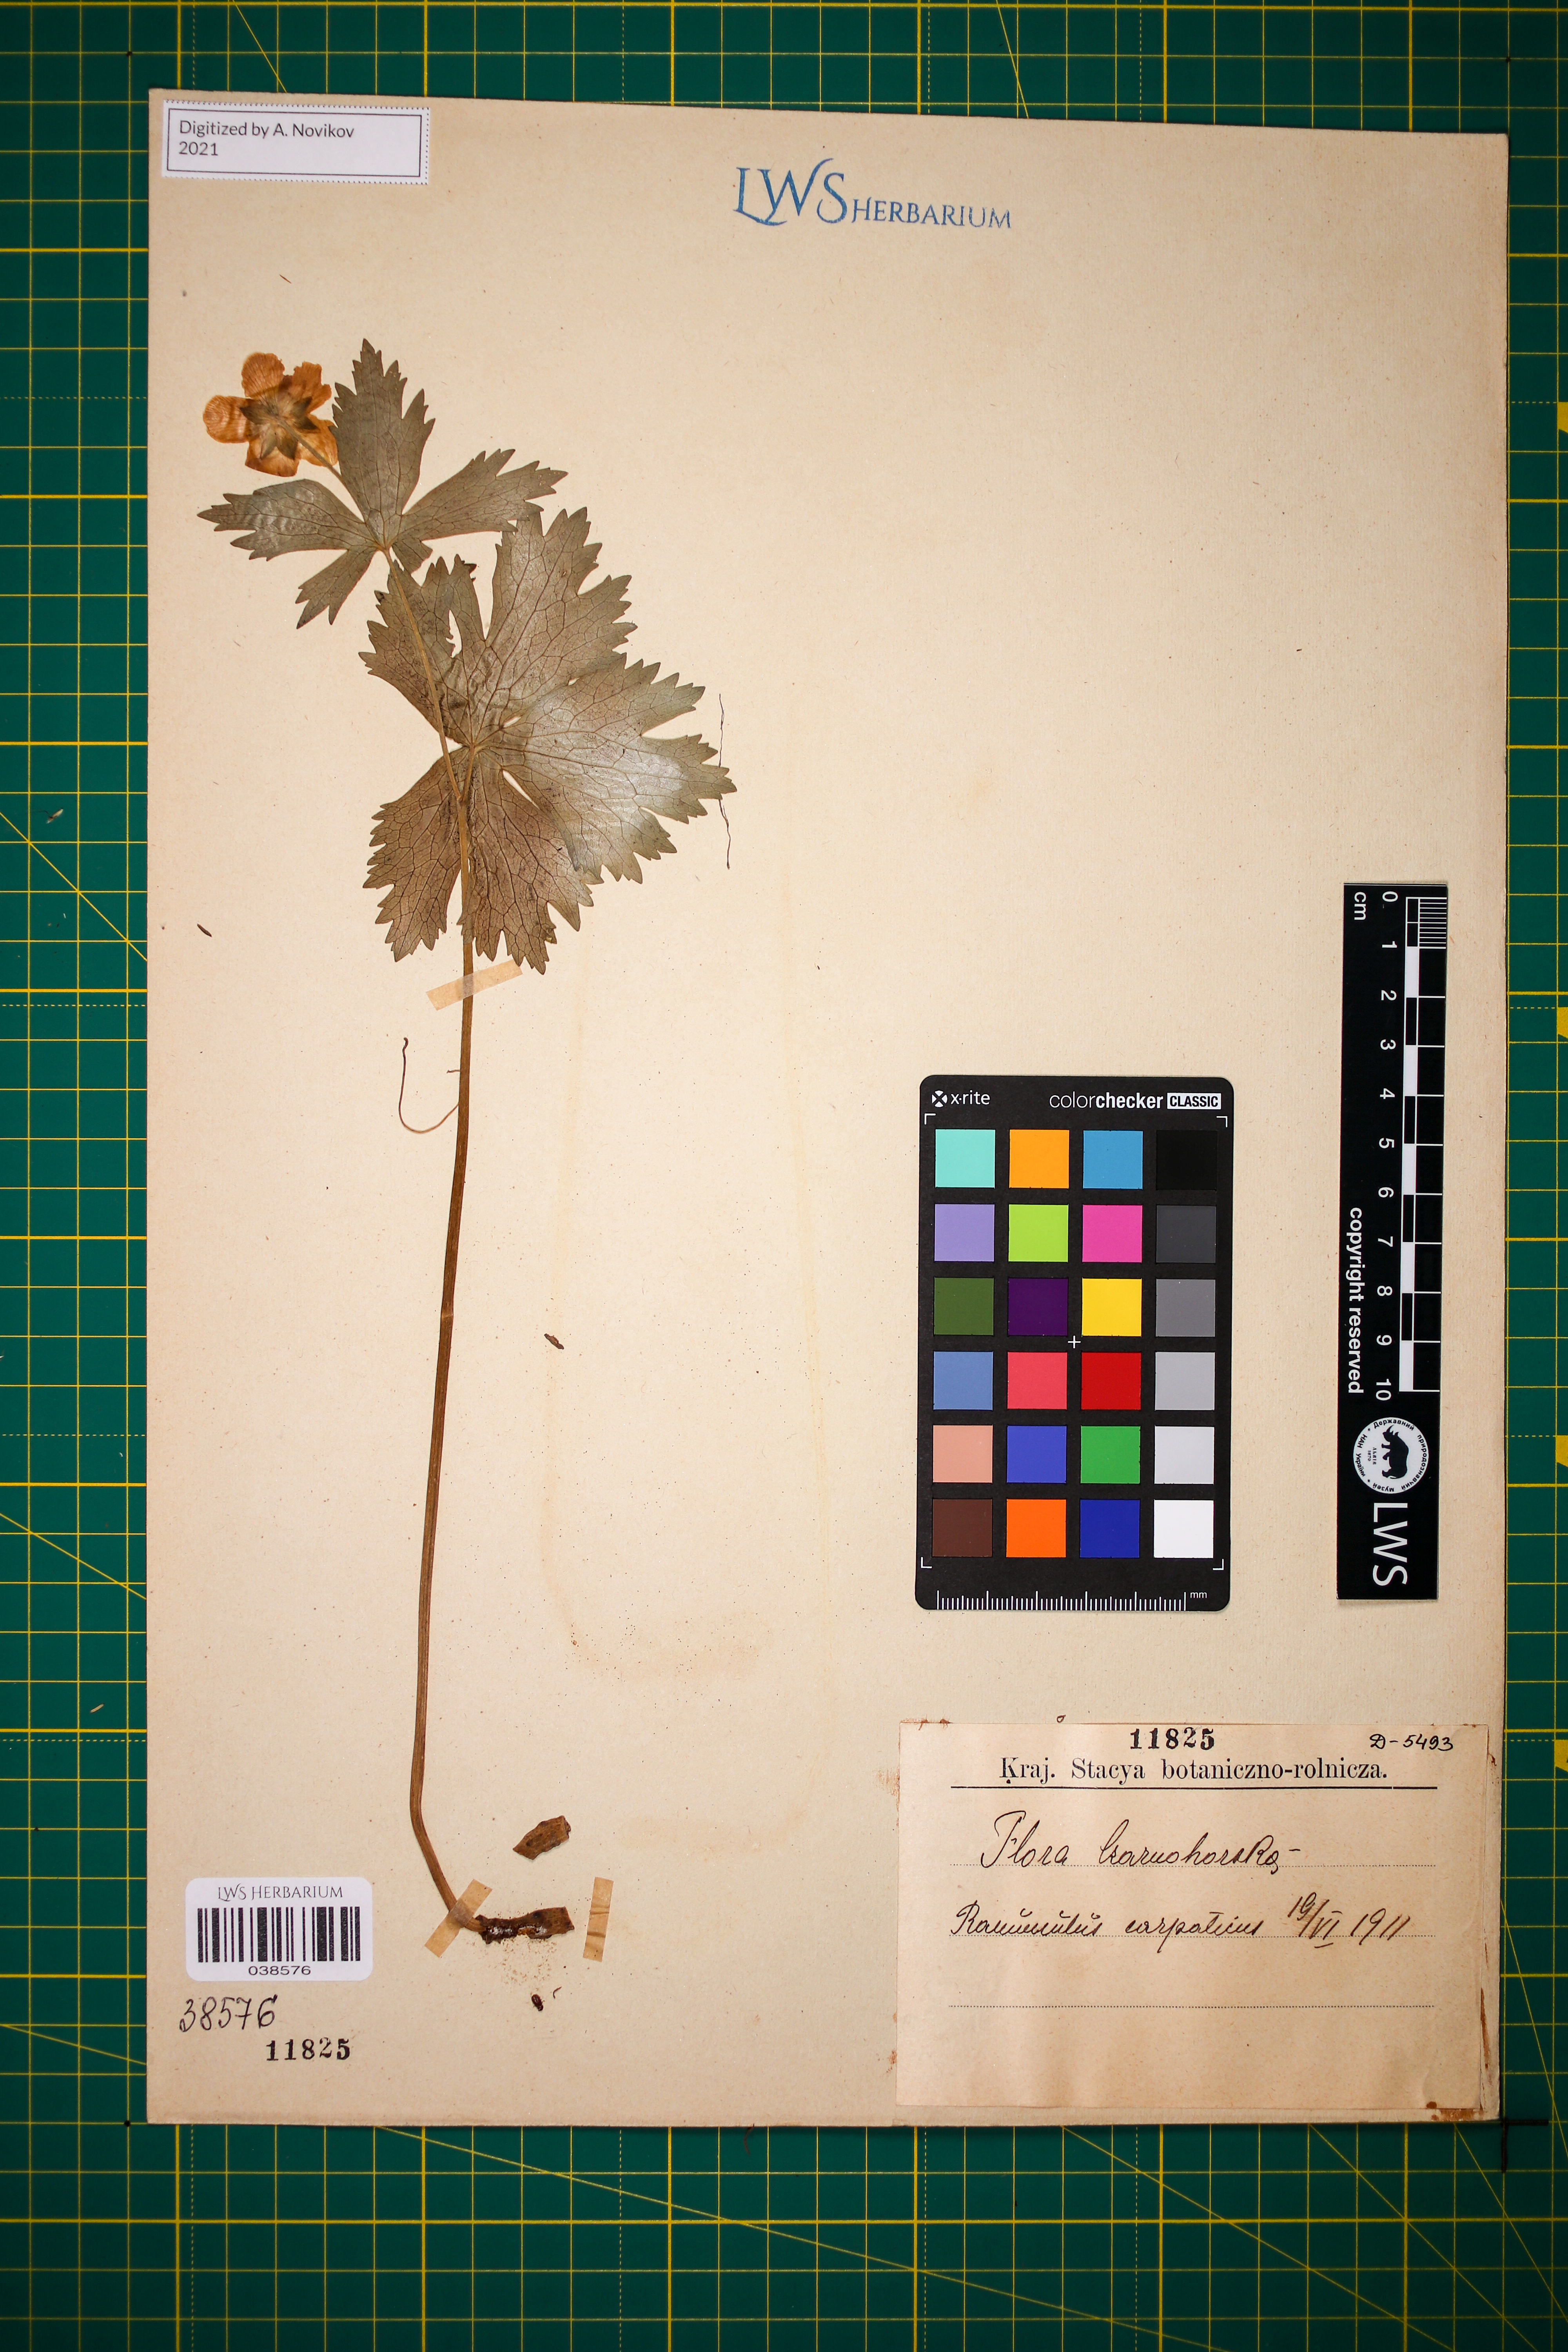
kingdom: Plantae
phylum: Tracheophyta
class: Magnoliopsida
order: Ranunculales
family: Ranunculaceae
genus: Ranunculus
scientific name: Ranunculus carpaticus
